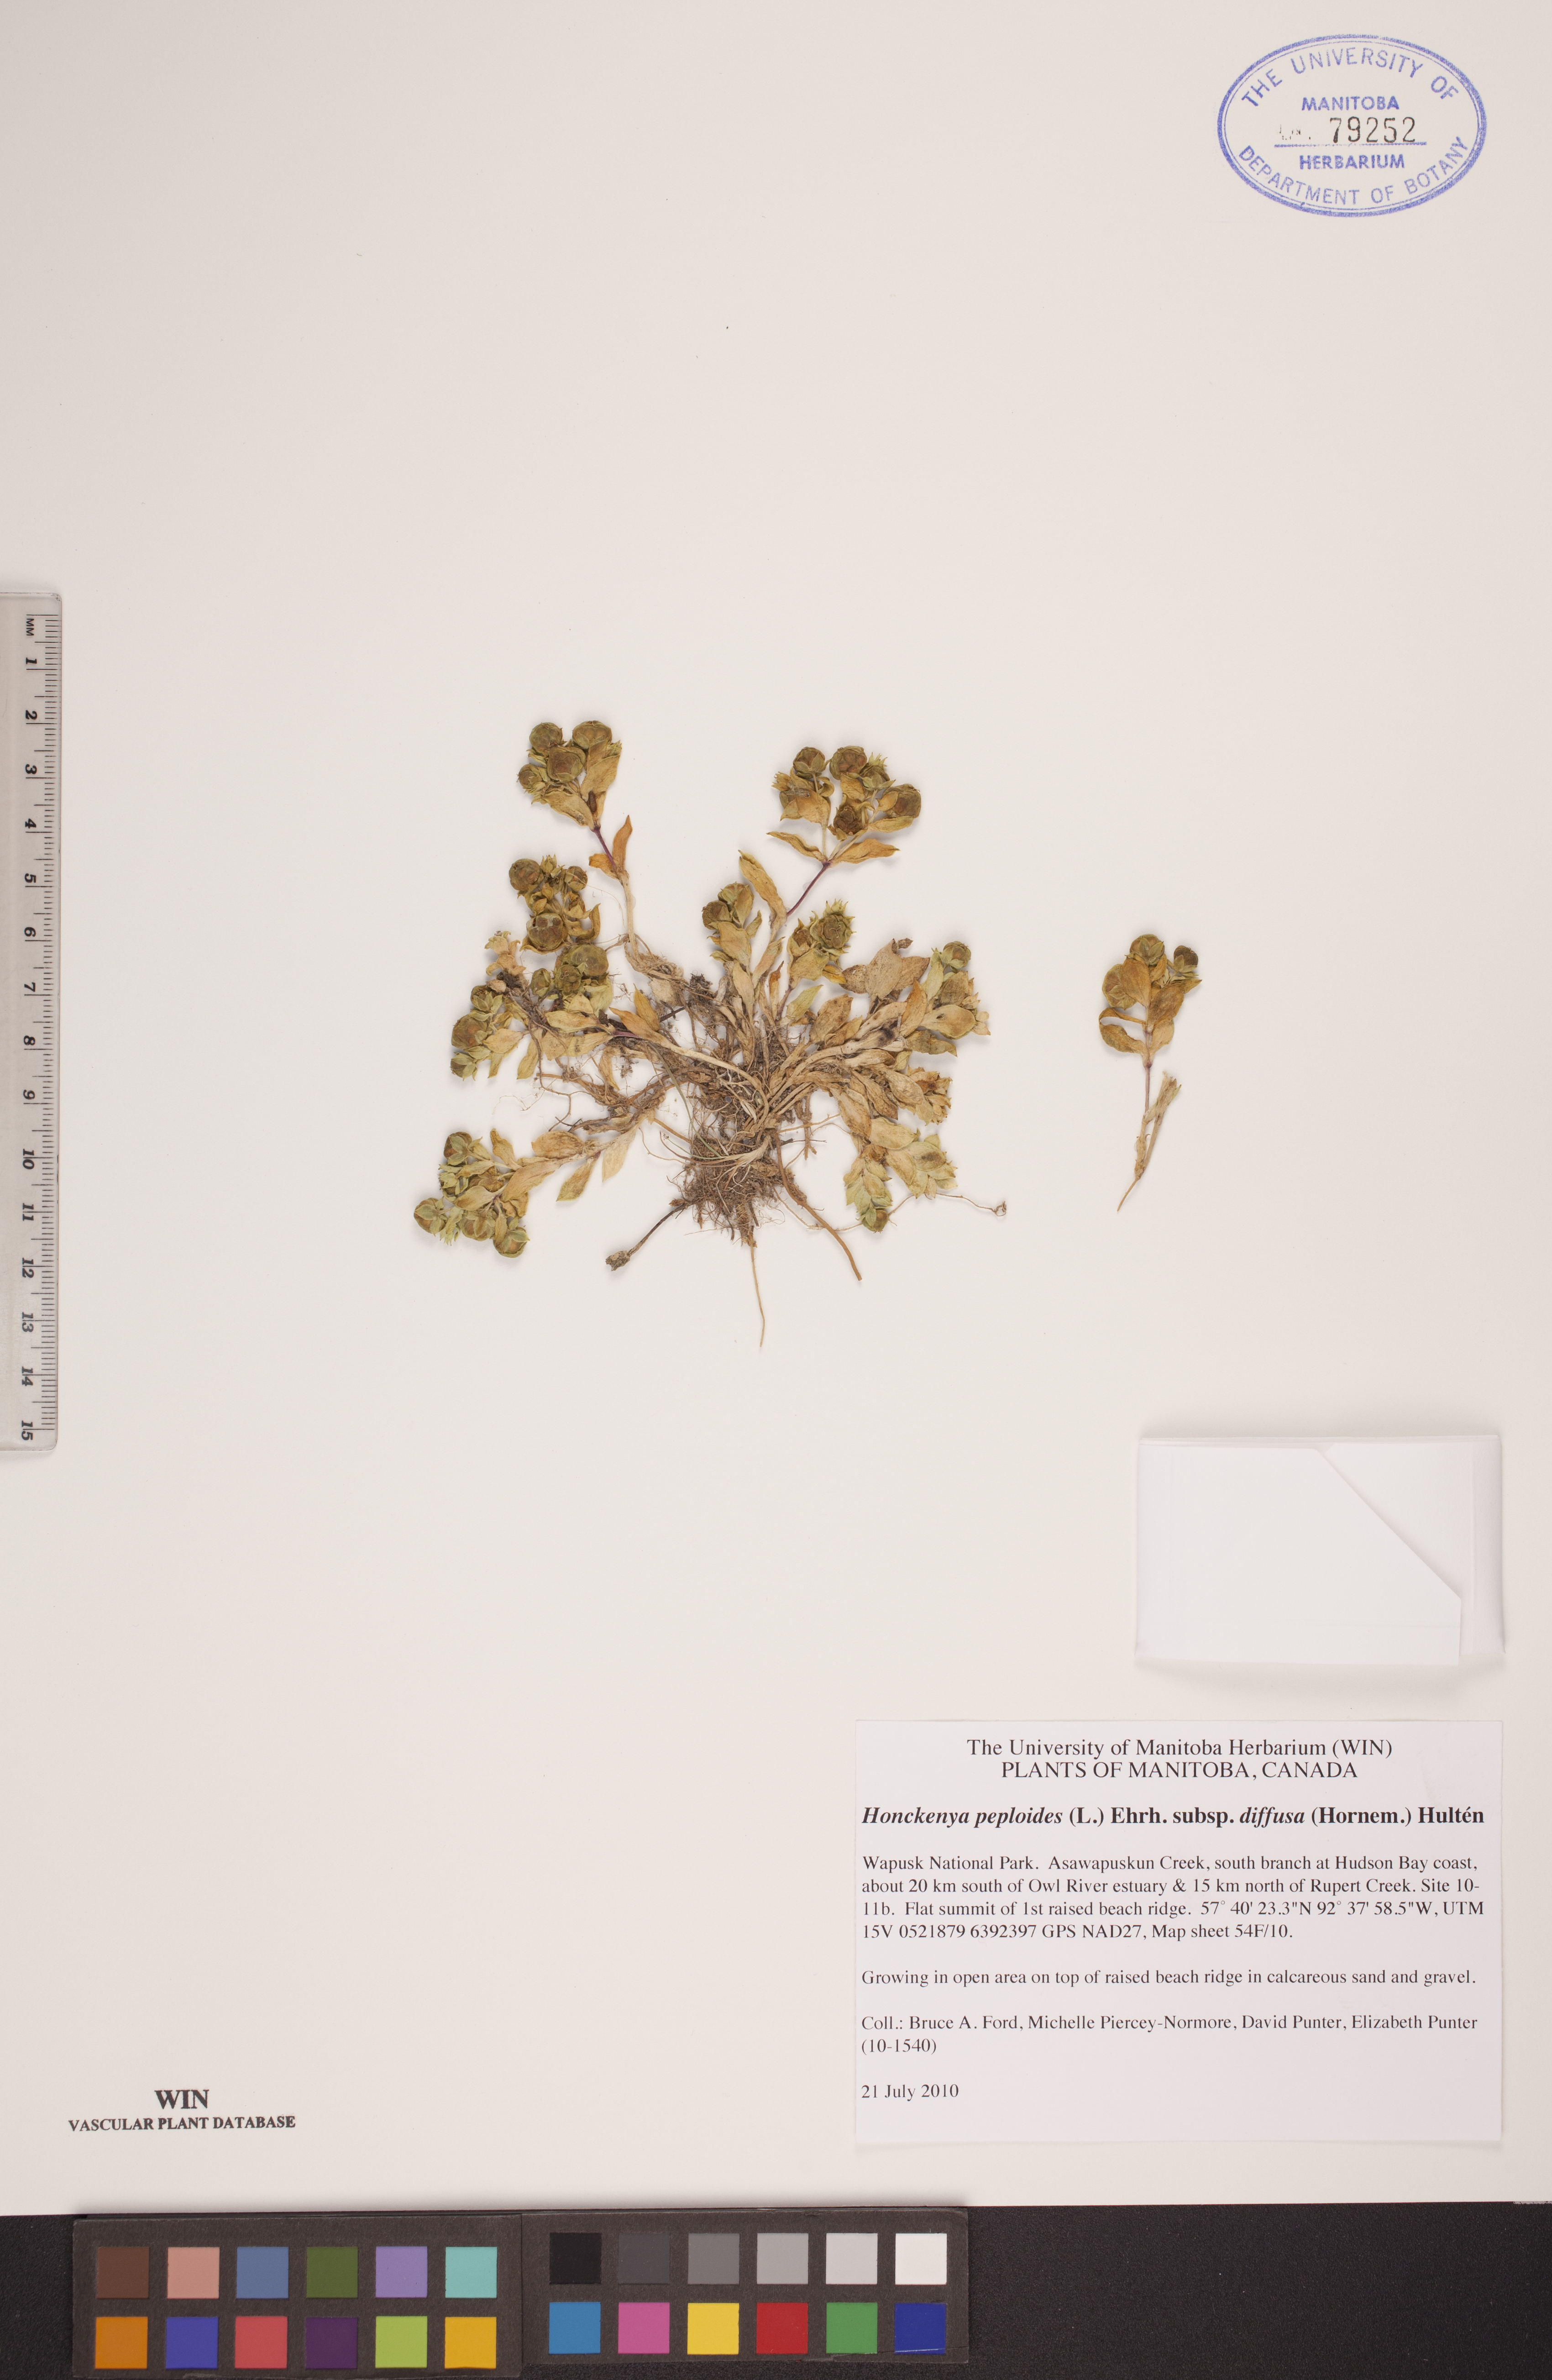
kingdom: Plantae
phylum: Tracheophyta
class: Magnoliopsida
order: Caryophyllales
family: Caryophyllaceae
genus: Honckenya
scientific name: Honckenya peploides
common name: Sea sandwort
